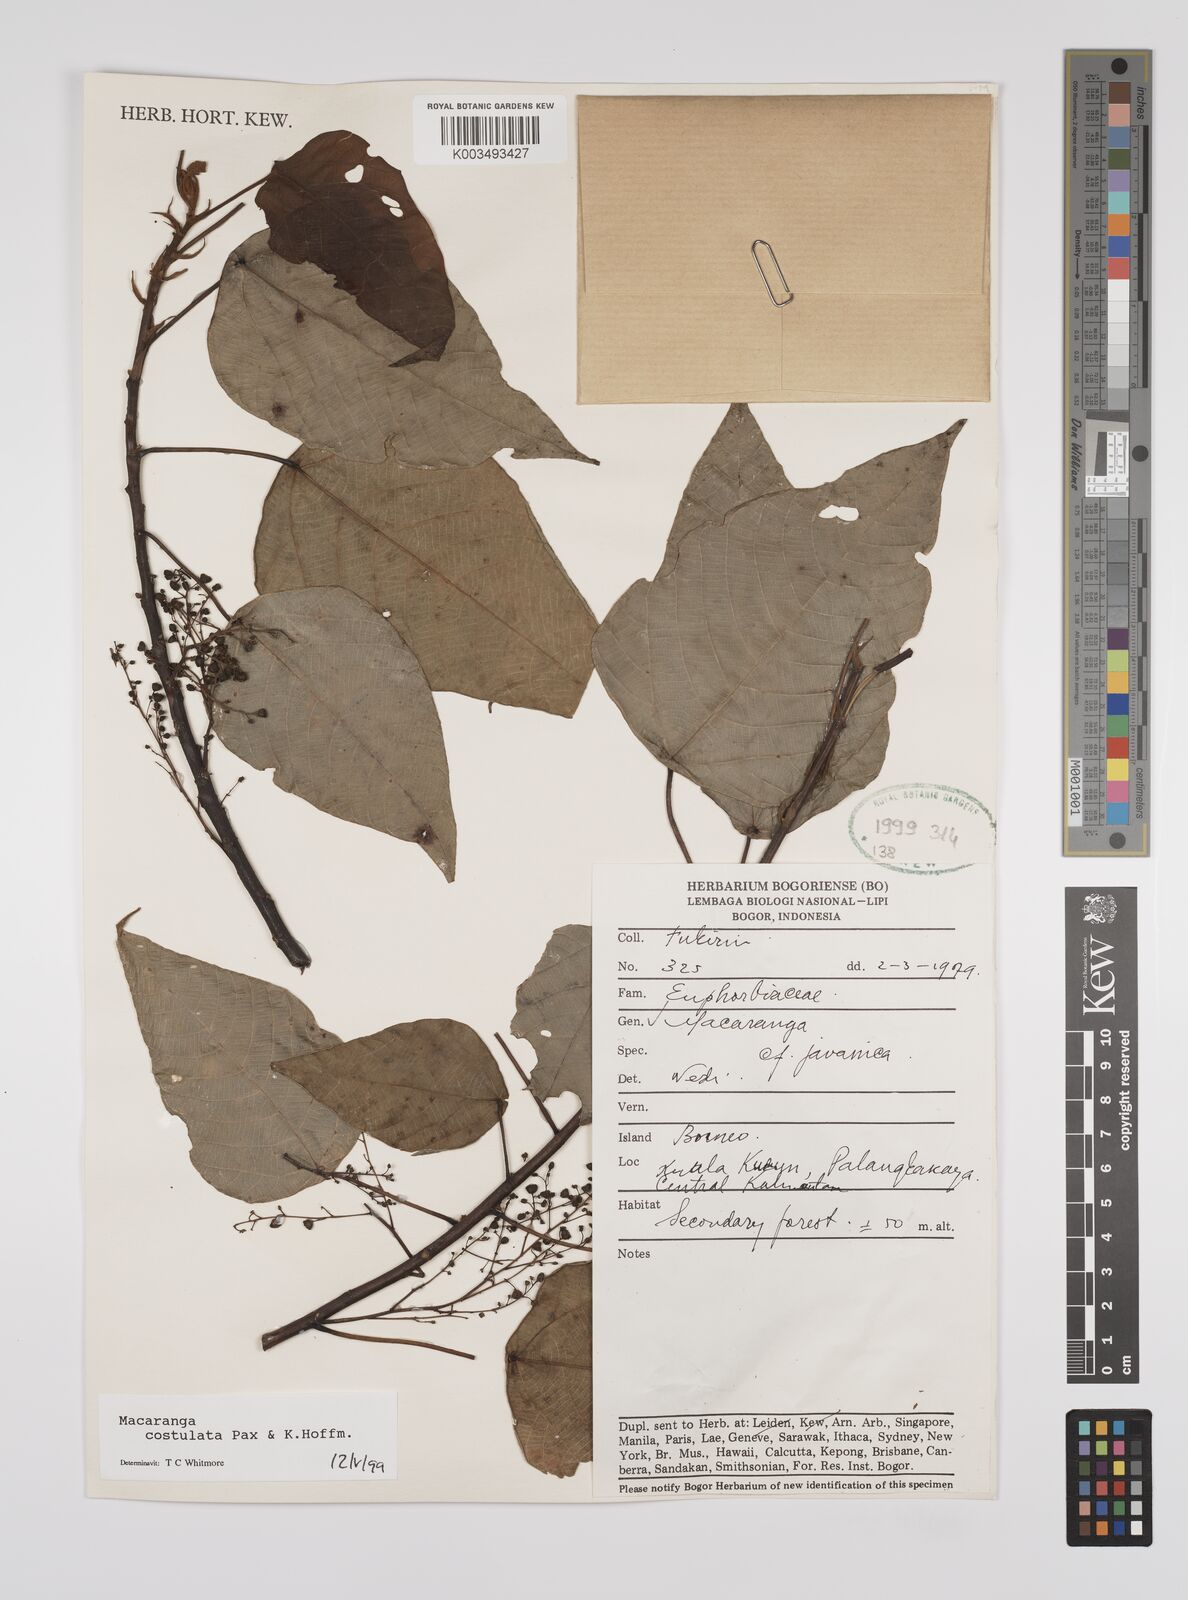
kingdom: Plantae
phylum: Tracheophyta
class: Magnoliopsida
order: Malpighiales
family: Euphorbiaceae
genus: Macaranga
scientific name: Macaranga costulata
